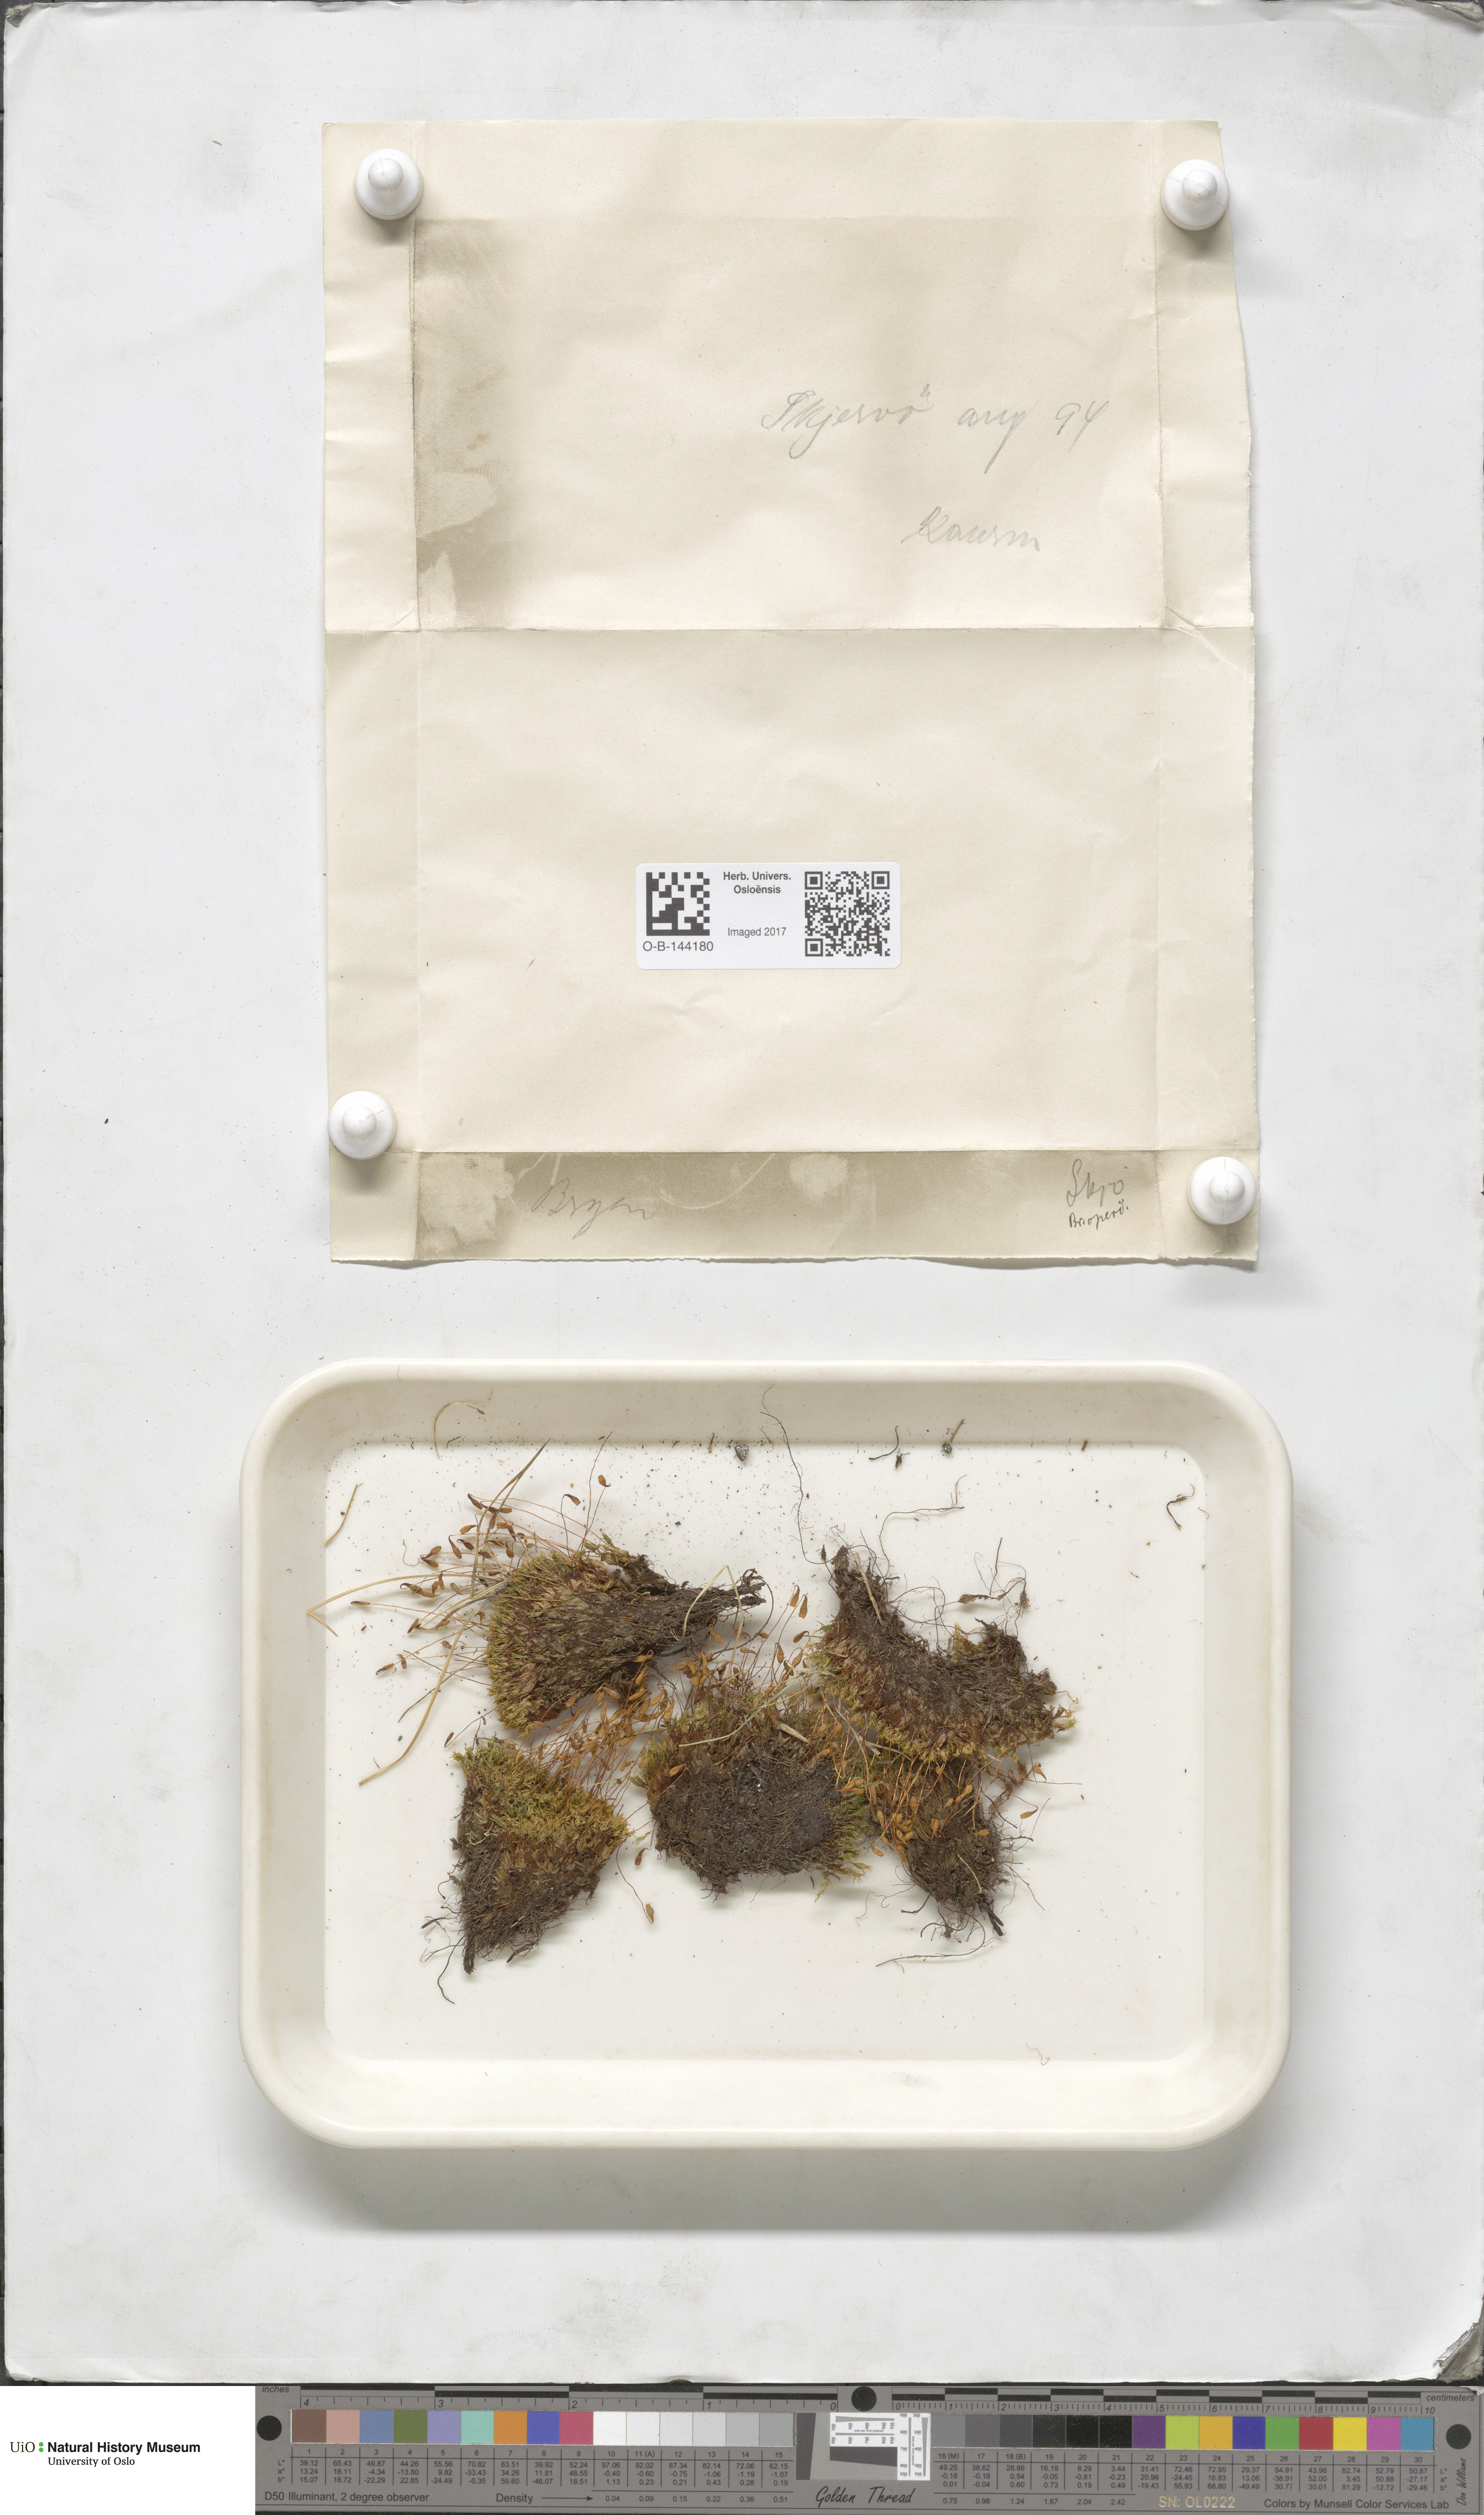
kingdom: Plantae
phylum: Bryophyta
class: Bryopsida
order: Bryales
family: Bryaceae
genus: Bryum
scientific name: Bryum
